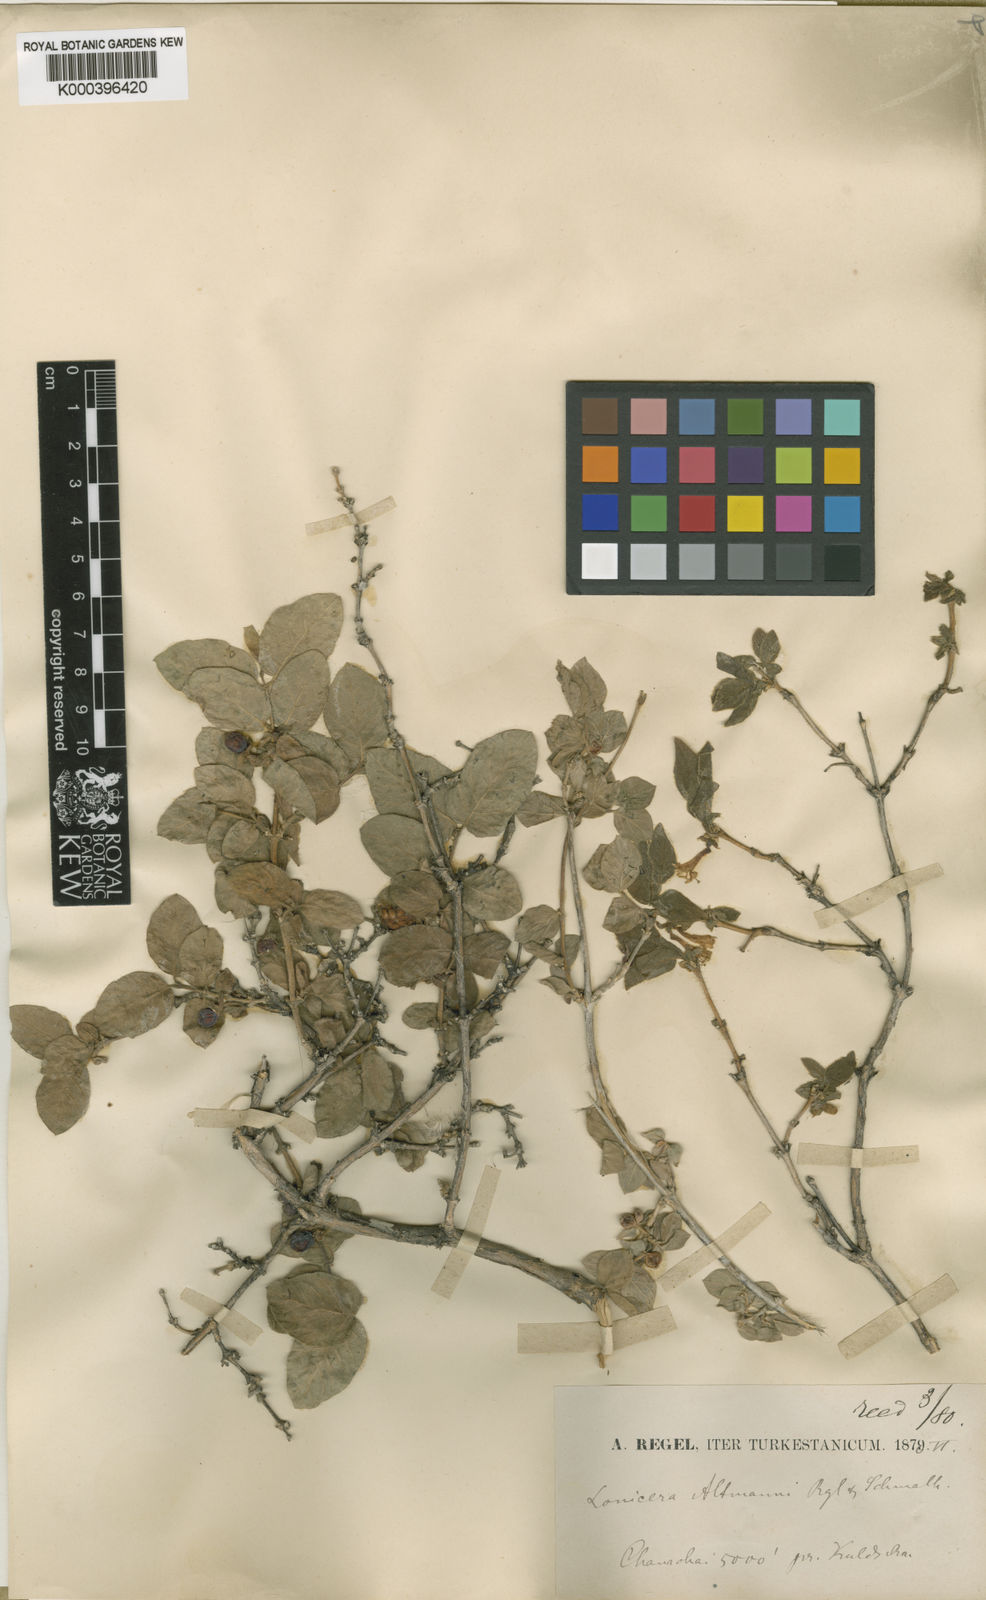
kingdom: Plantae
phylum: Tracheophyta
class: Magnoliopsida
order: Dipsacales
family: Caprifoliaceae
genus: Lonicera
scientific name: Lonicera altmannii
